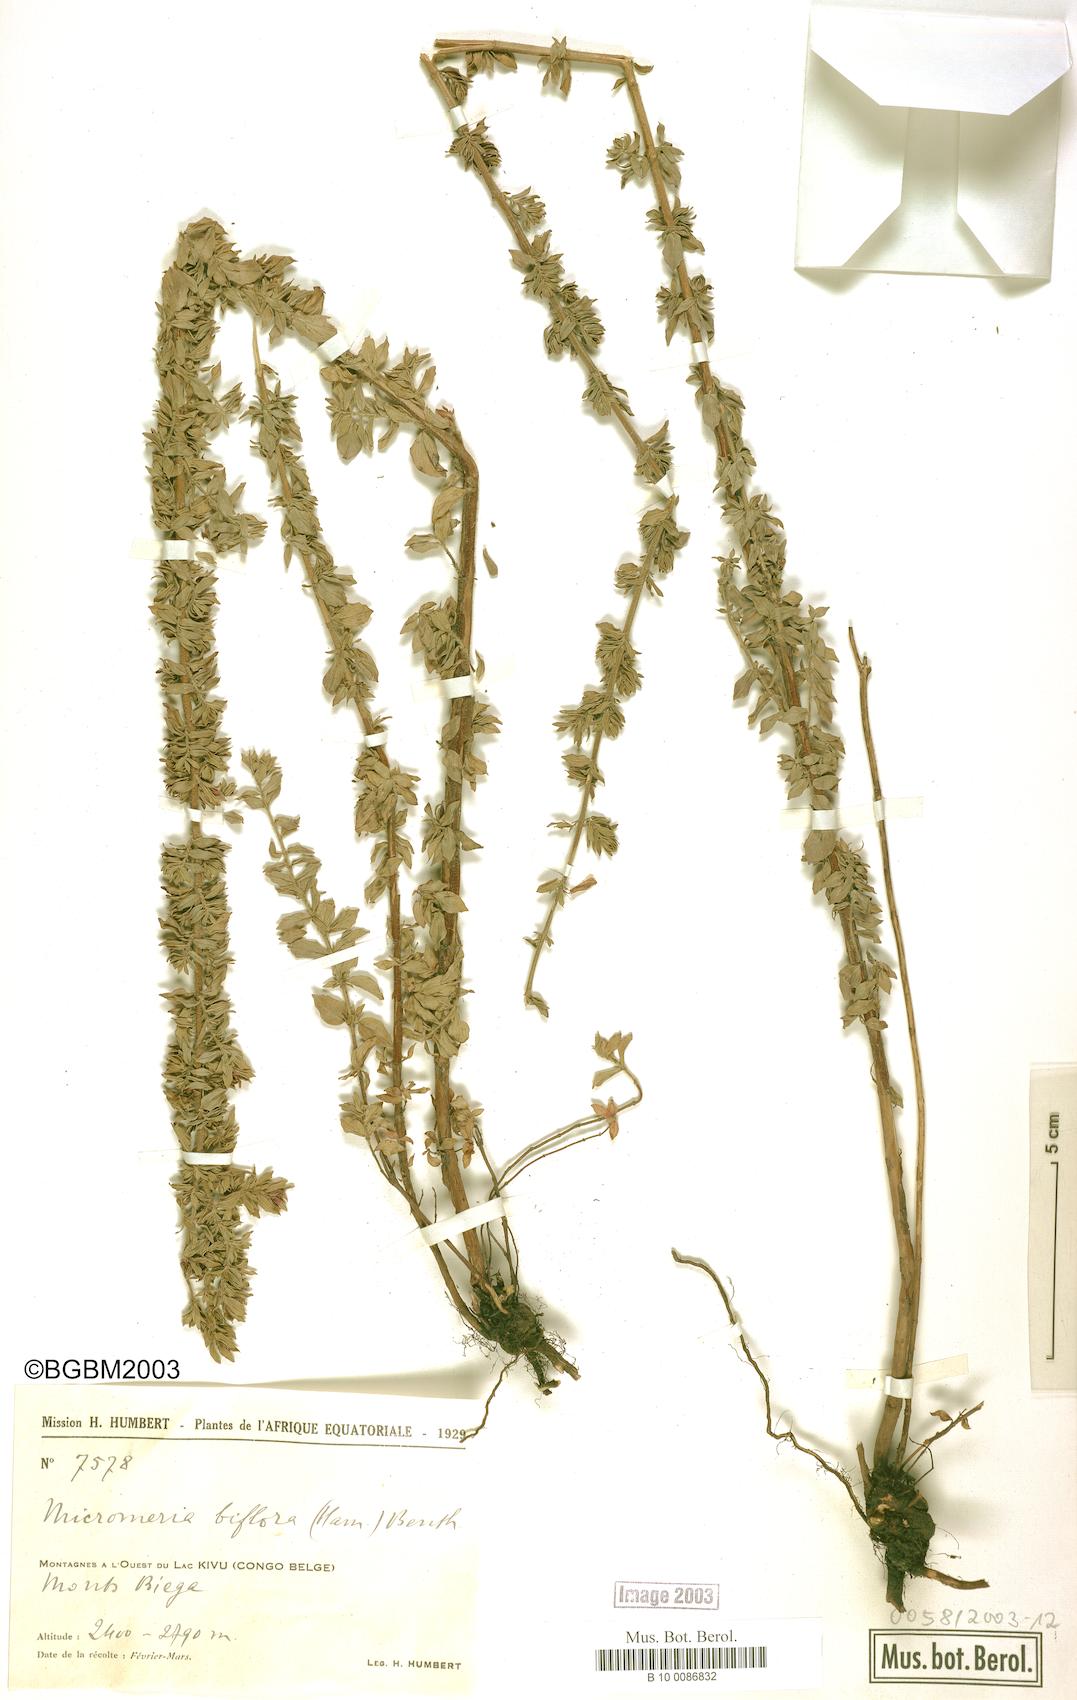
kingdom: Plantae
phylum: Tracheophyta
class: Magnoliopsida
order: Lamiales
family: Lamiaceae
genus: Micromeria
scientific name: Micromeria biflora
